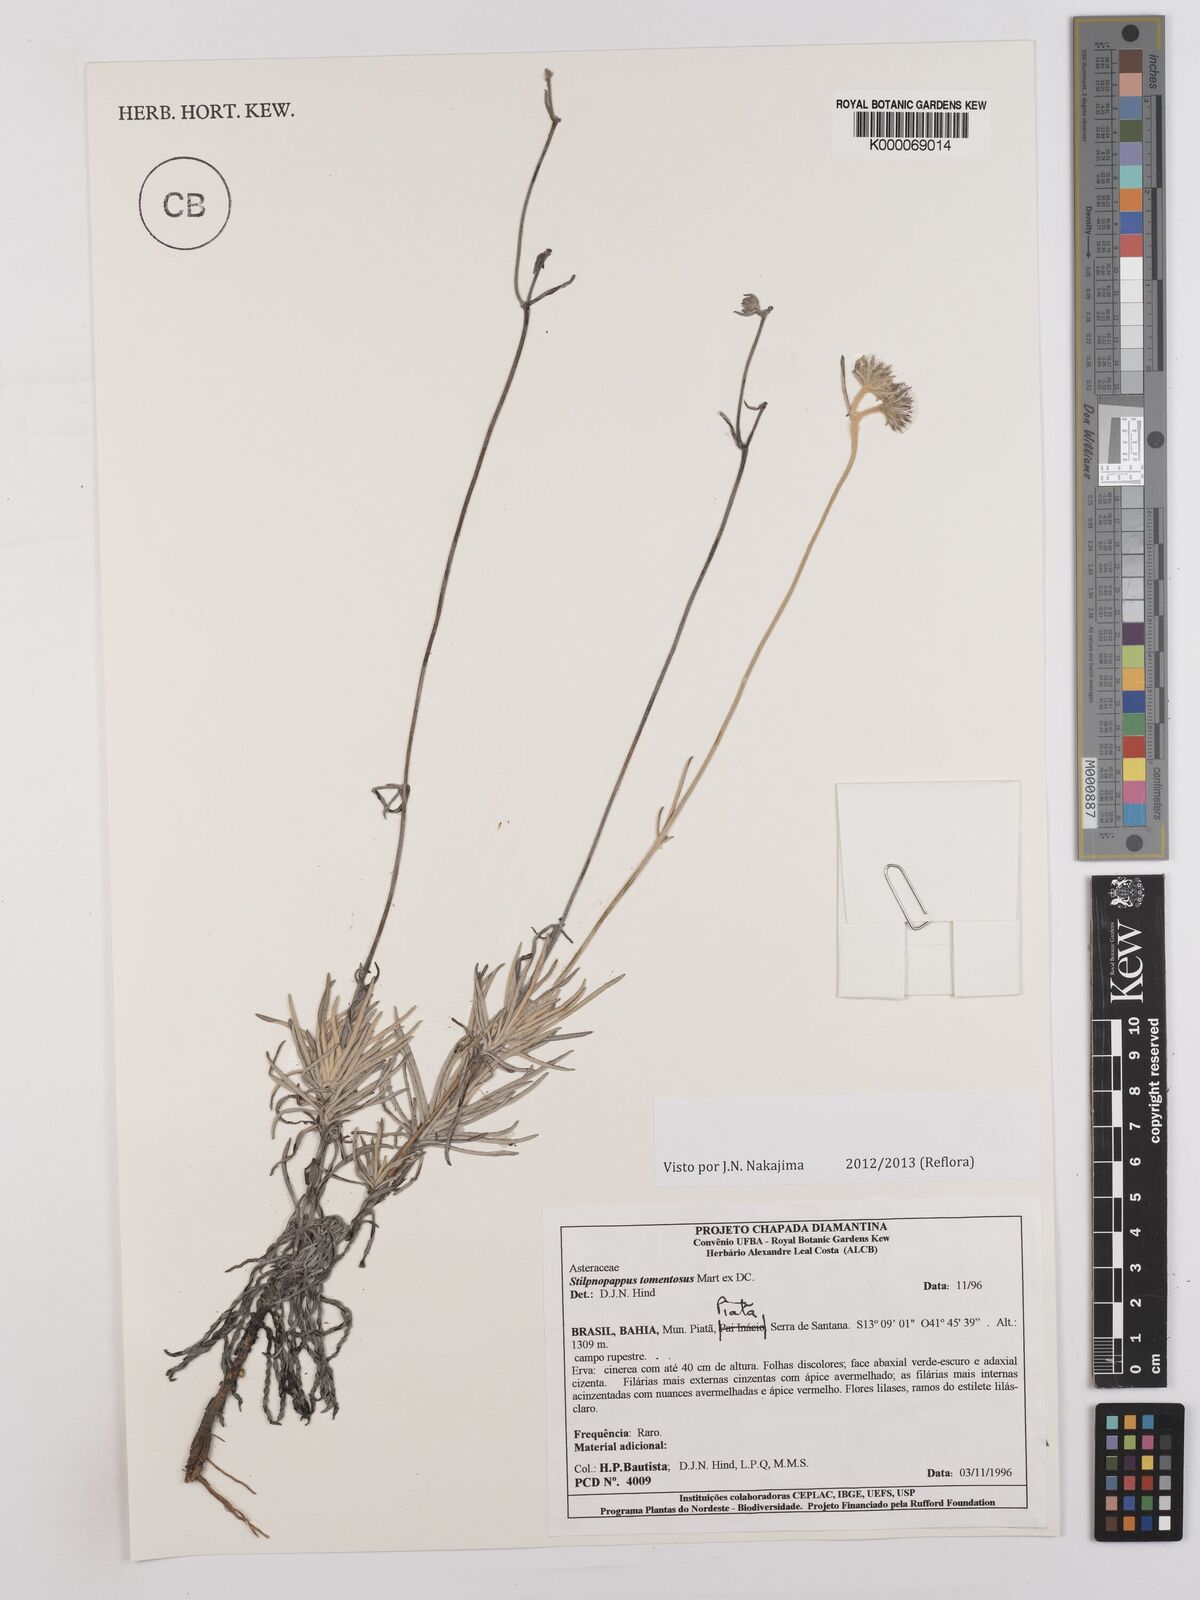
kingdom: Plantae
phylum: Tracheophyta
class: Magnoliopsida
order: Asterales
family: Asteraceae
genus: Stilpnopappus
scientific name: Stilpnopappus tomentosus
